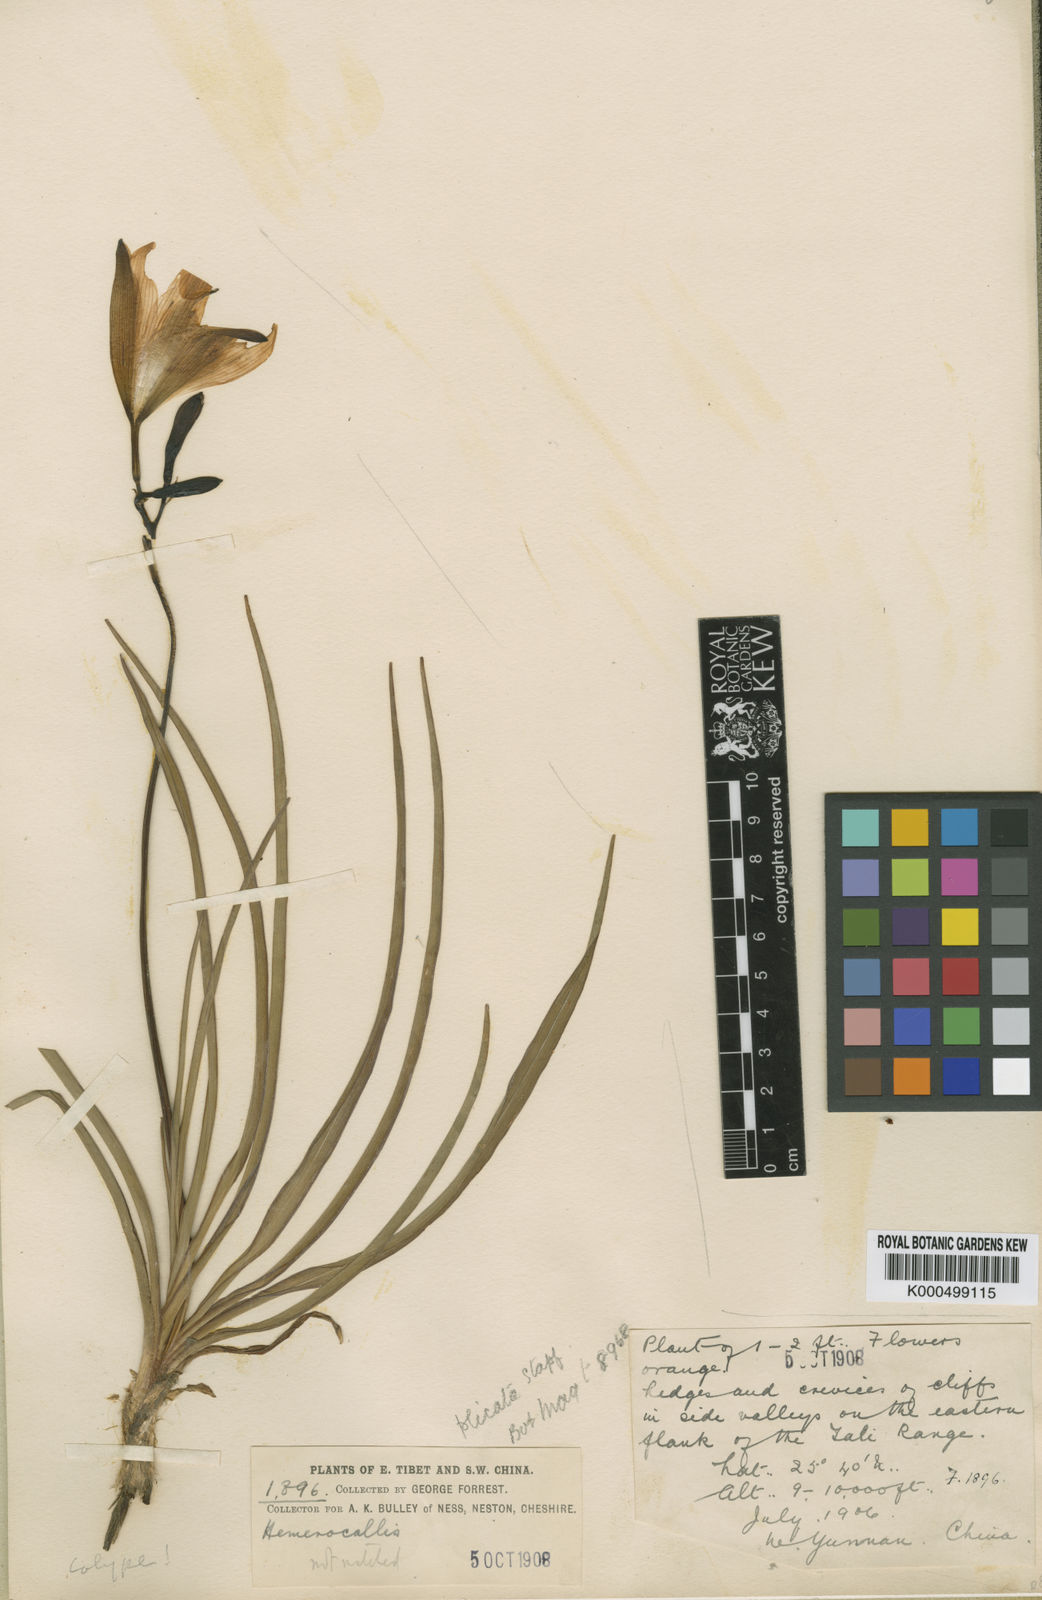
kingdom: Plantae
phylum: Tracheophyta
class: Liliopsida
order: Asparagales
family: Asphodelaceae
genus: Hemerocallis
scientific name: Hemerocallis plicata
